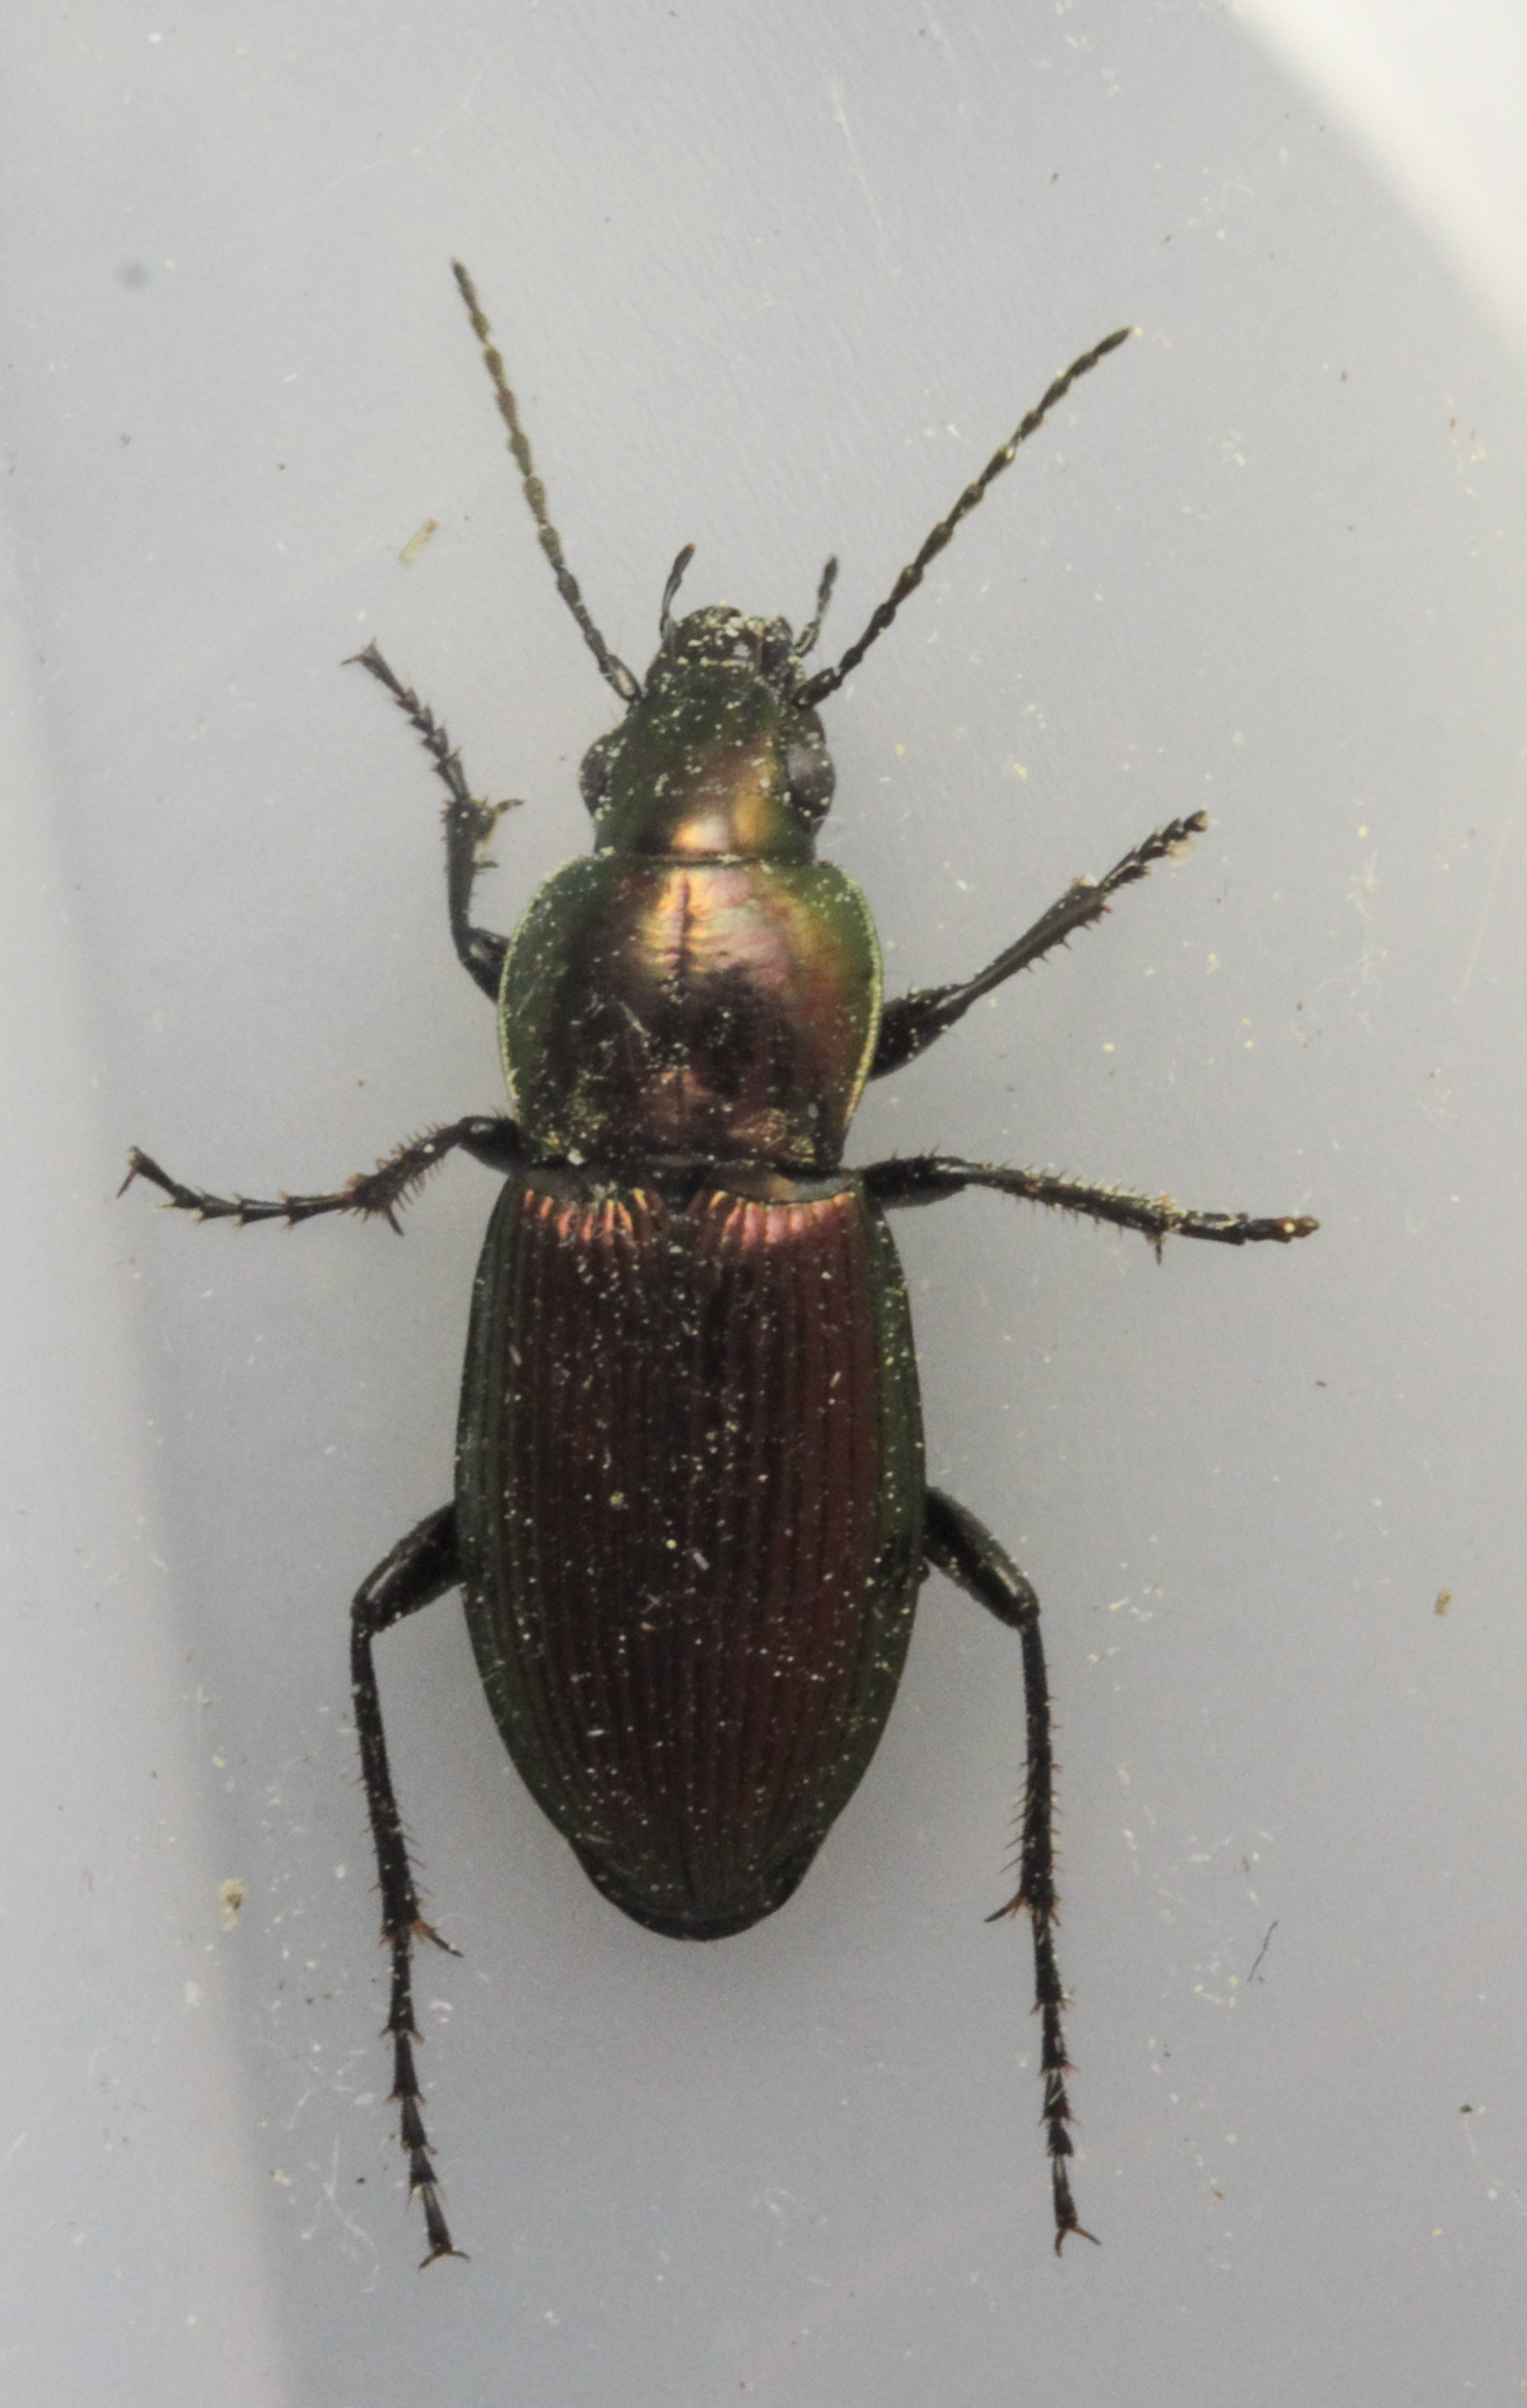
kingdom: Animalia
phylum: Arthropoda
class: Insecta
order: Coleoptera
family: Carabidae
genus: Poecilus
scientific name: Poecilus lepidus
